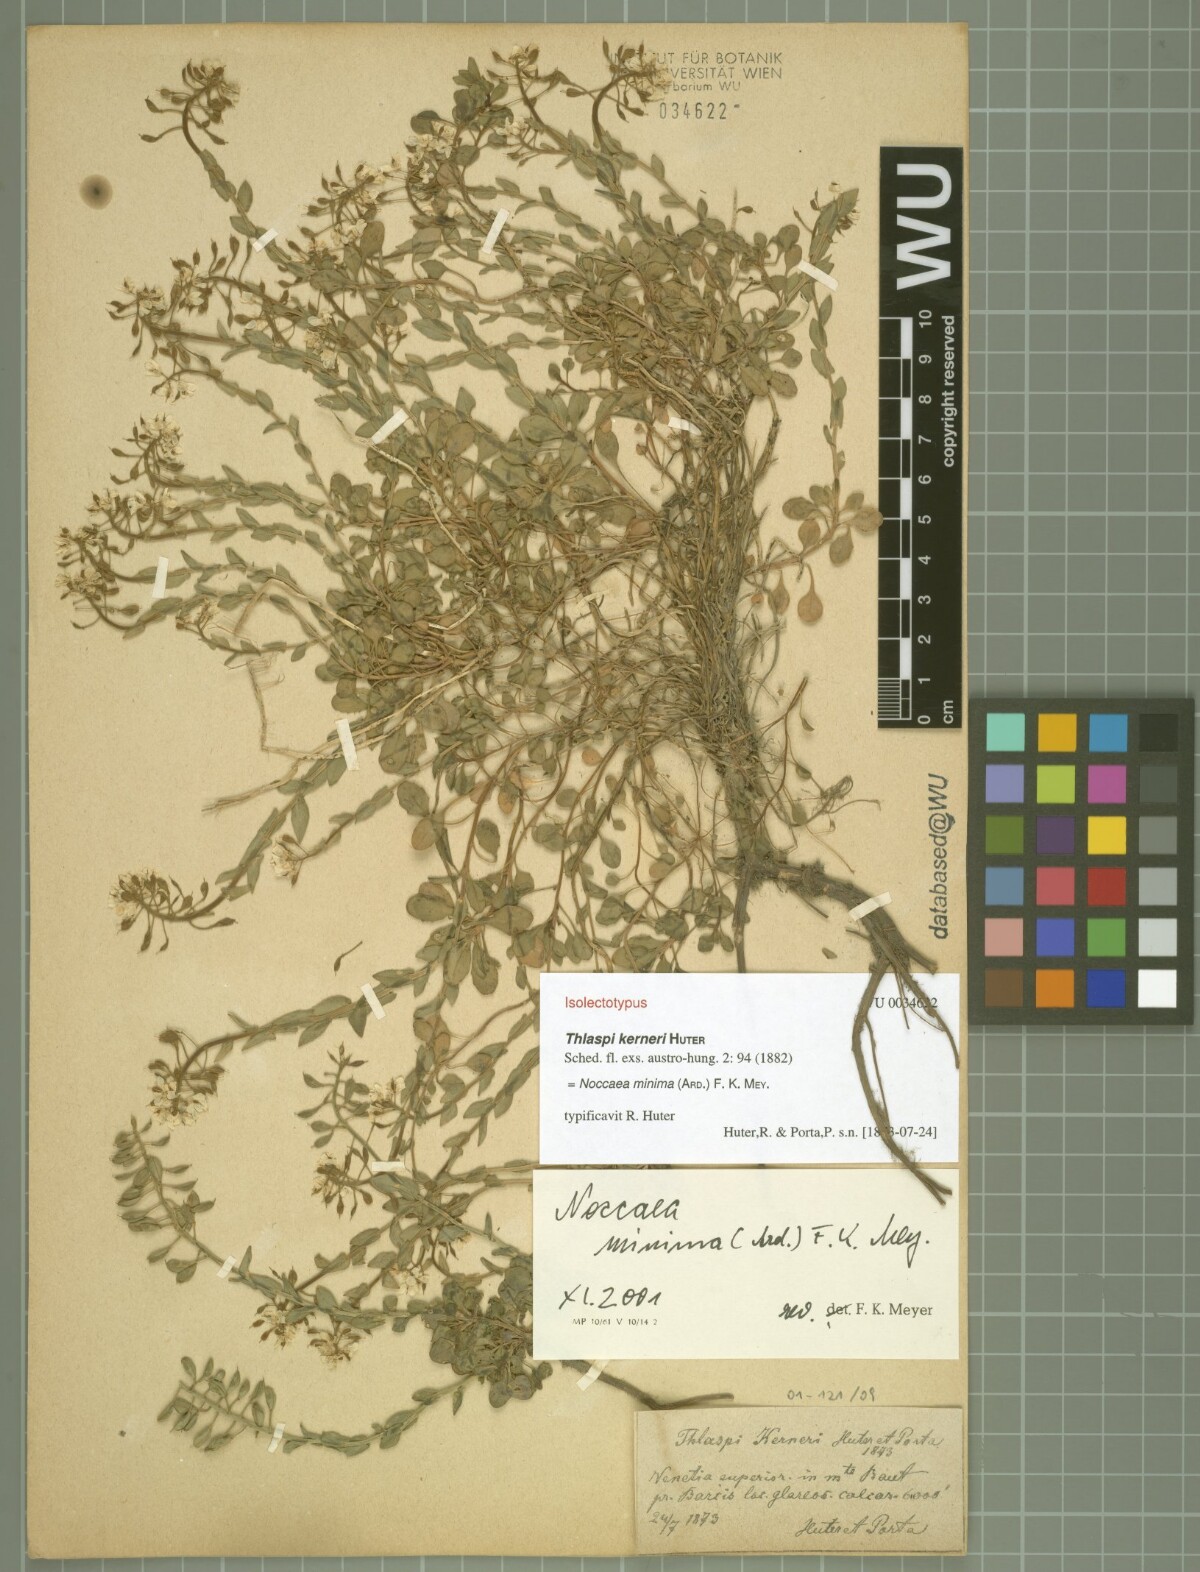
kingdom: Plantae
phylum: Tracheophyta
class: Magnoliopsida
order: Brassicales
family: Brassicaceae
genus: Noccaea
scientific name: Noccaea minima
